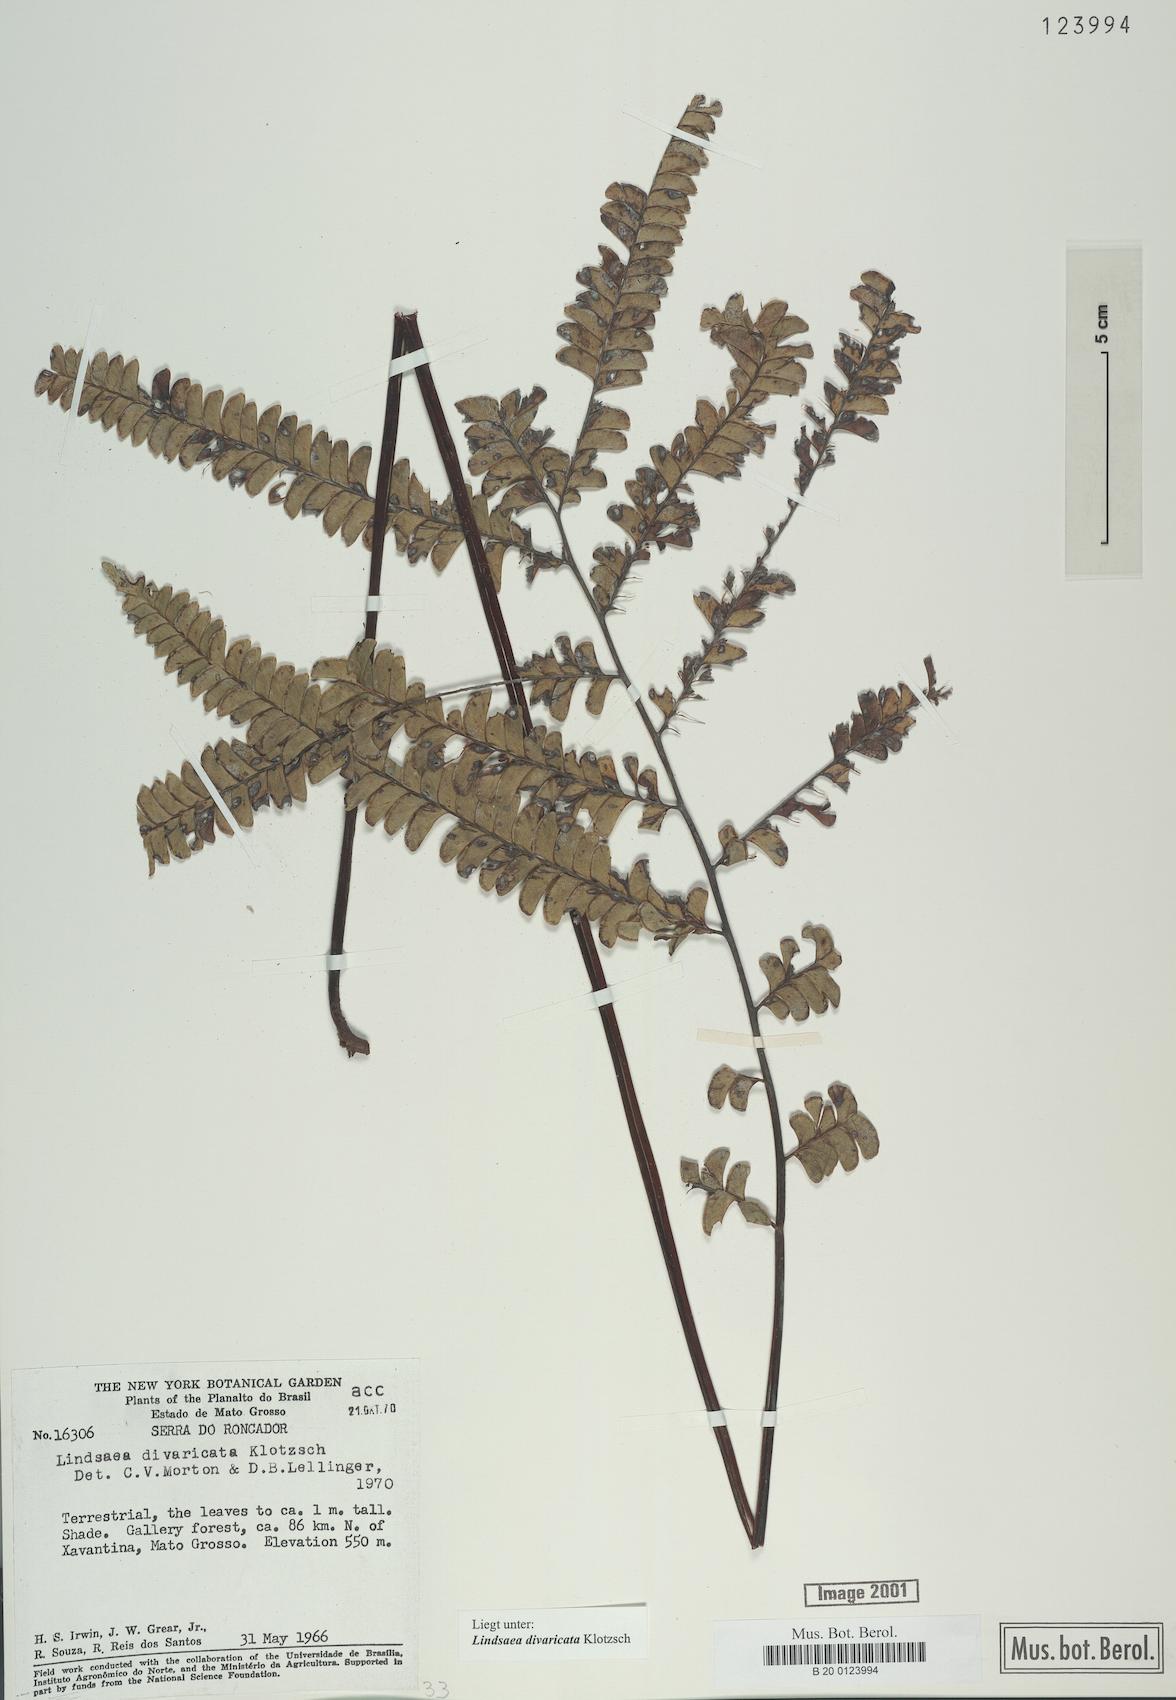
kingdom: Plantae
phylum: Tracheophyta
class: Polypodiopsida
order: Polypodiales
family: Lindsaeaceae
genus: Lindsaea
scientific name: Lindsaea divaricata
